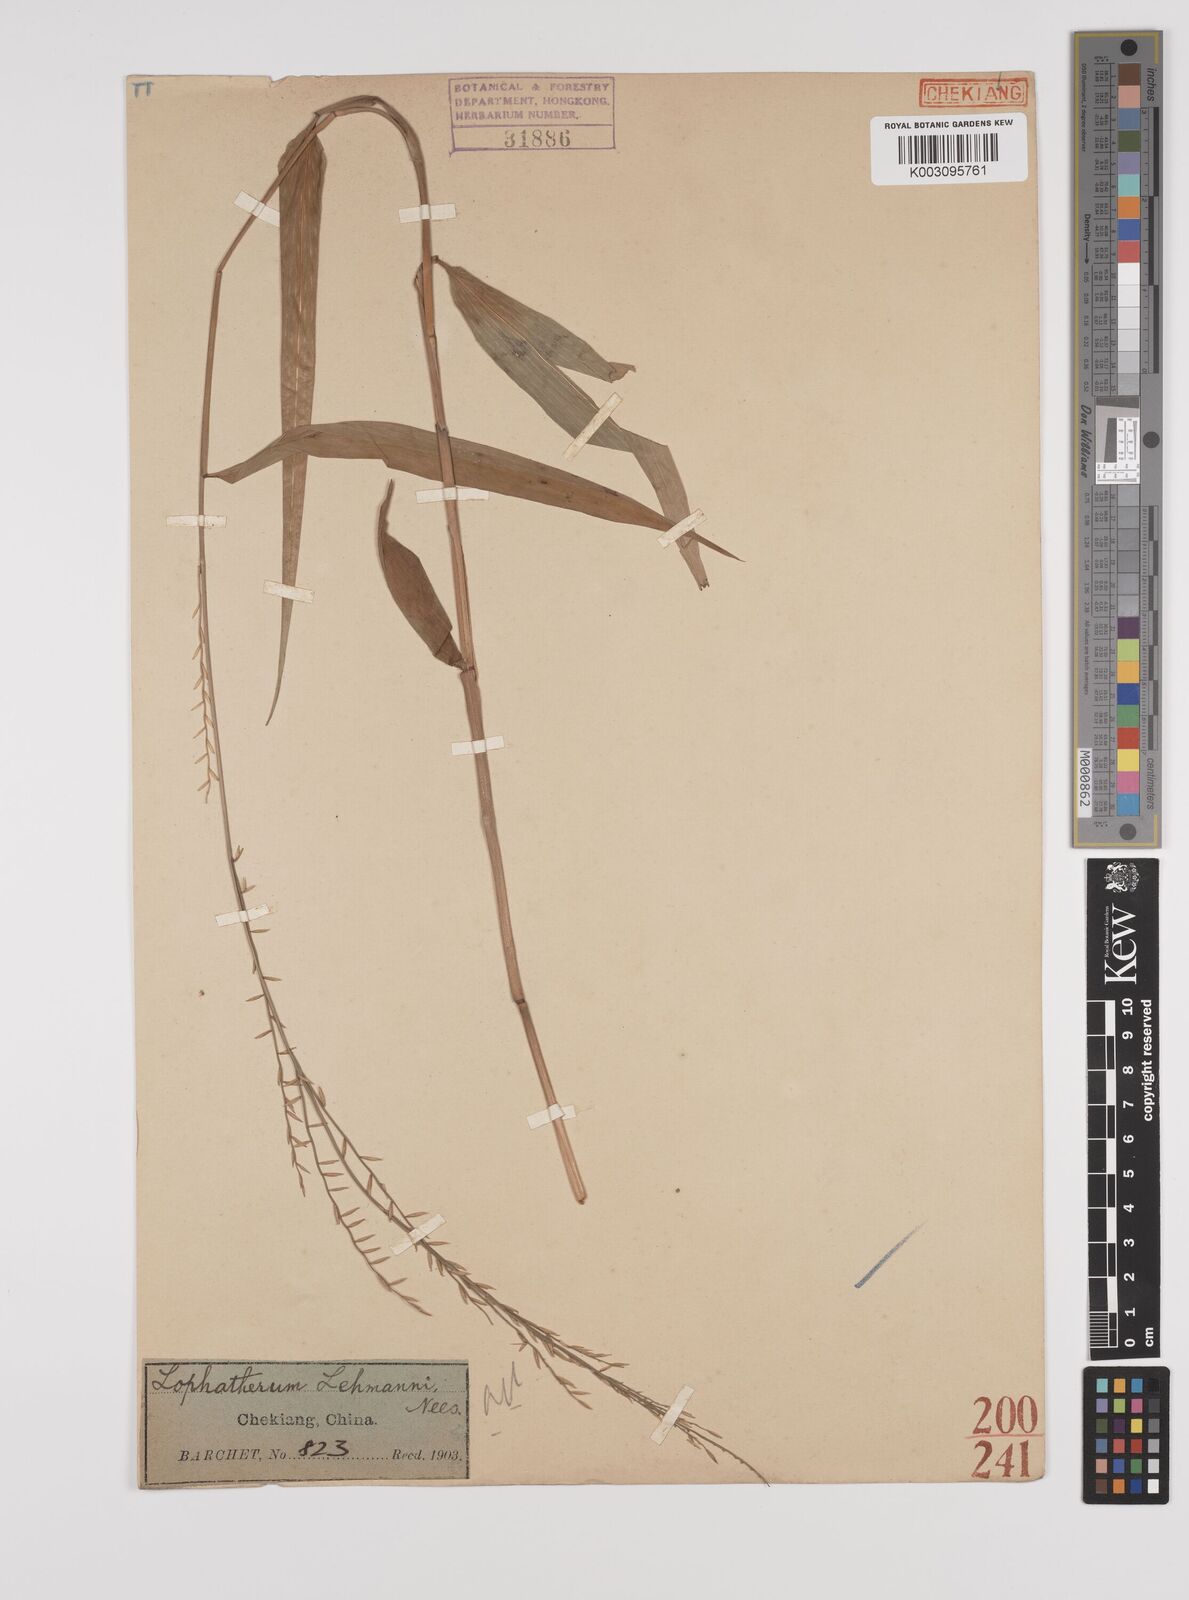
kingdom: Plantae
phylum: Tracheophyta
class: Liliopsida
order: Poales
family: Poaceae
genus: Lophatherum
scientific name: Lophatherum gracile
